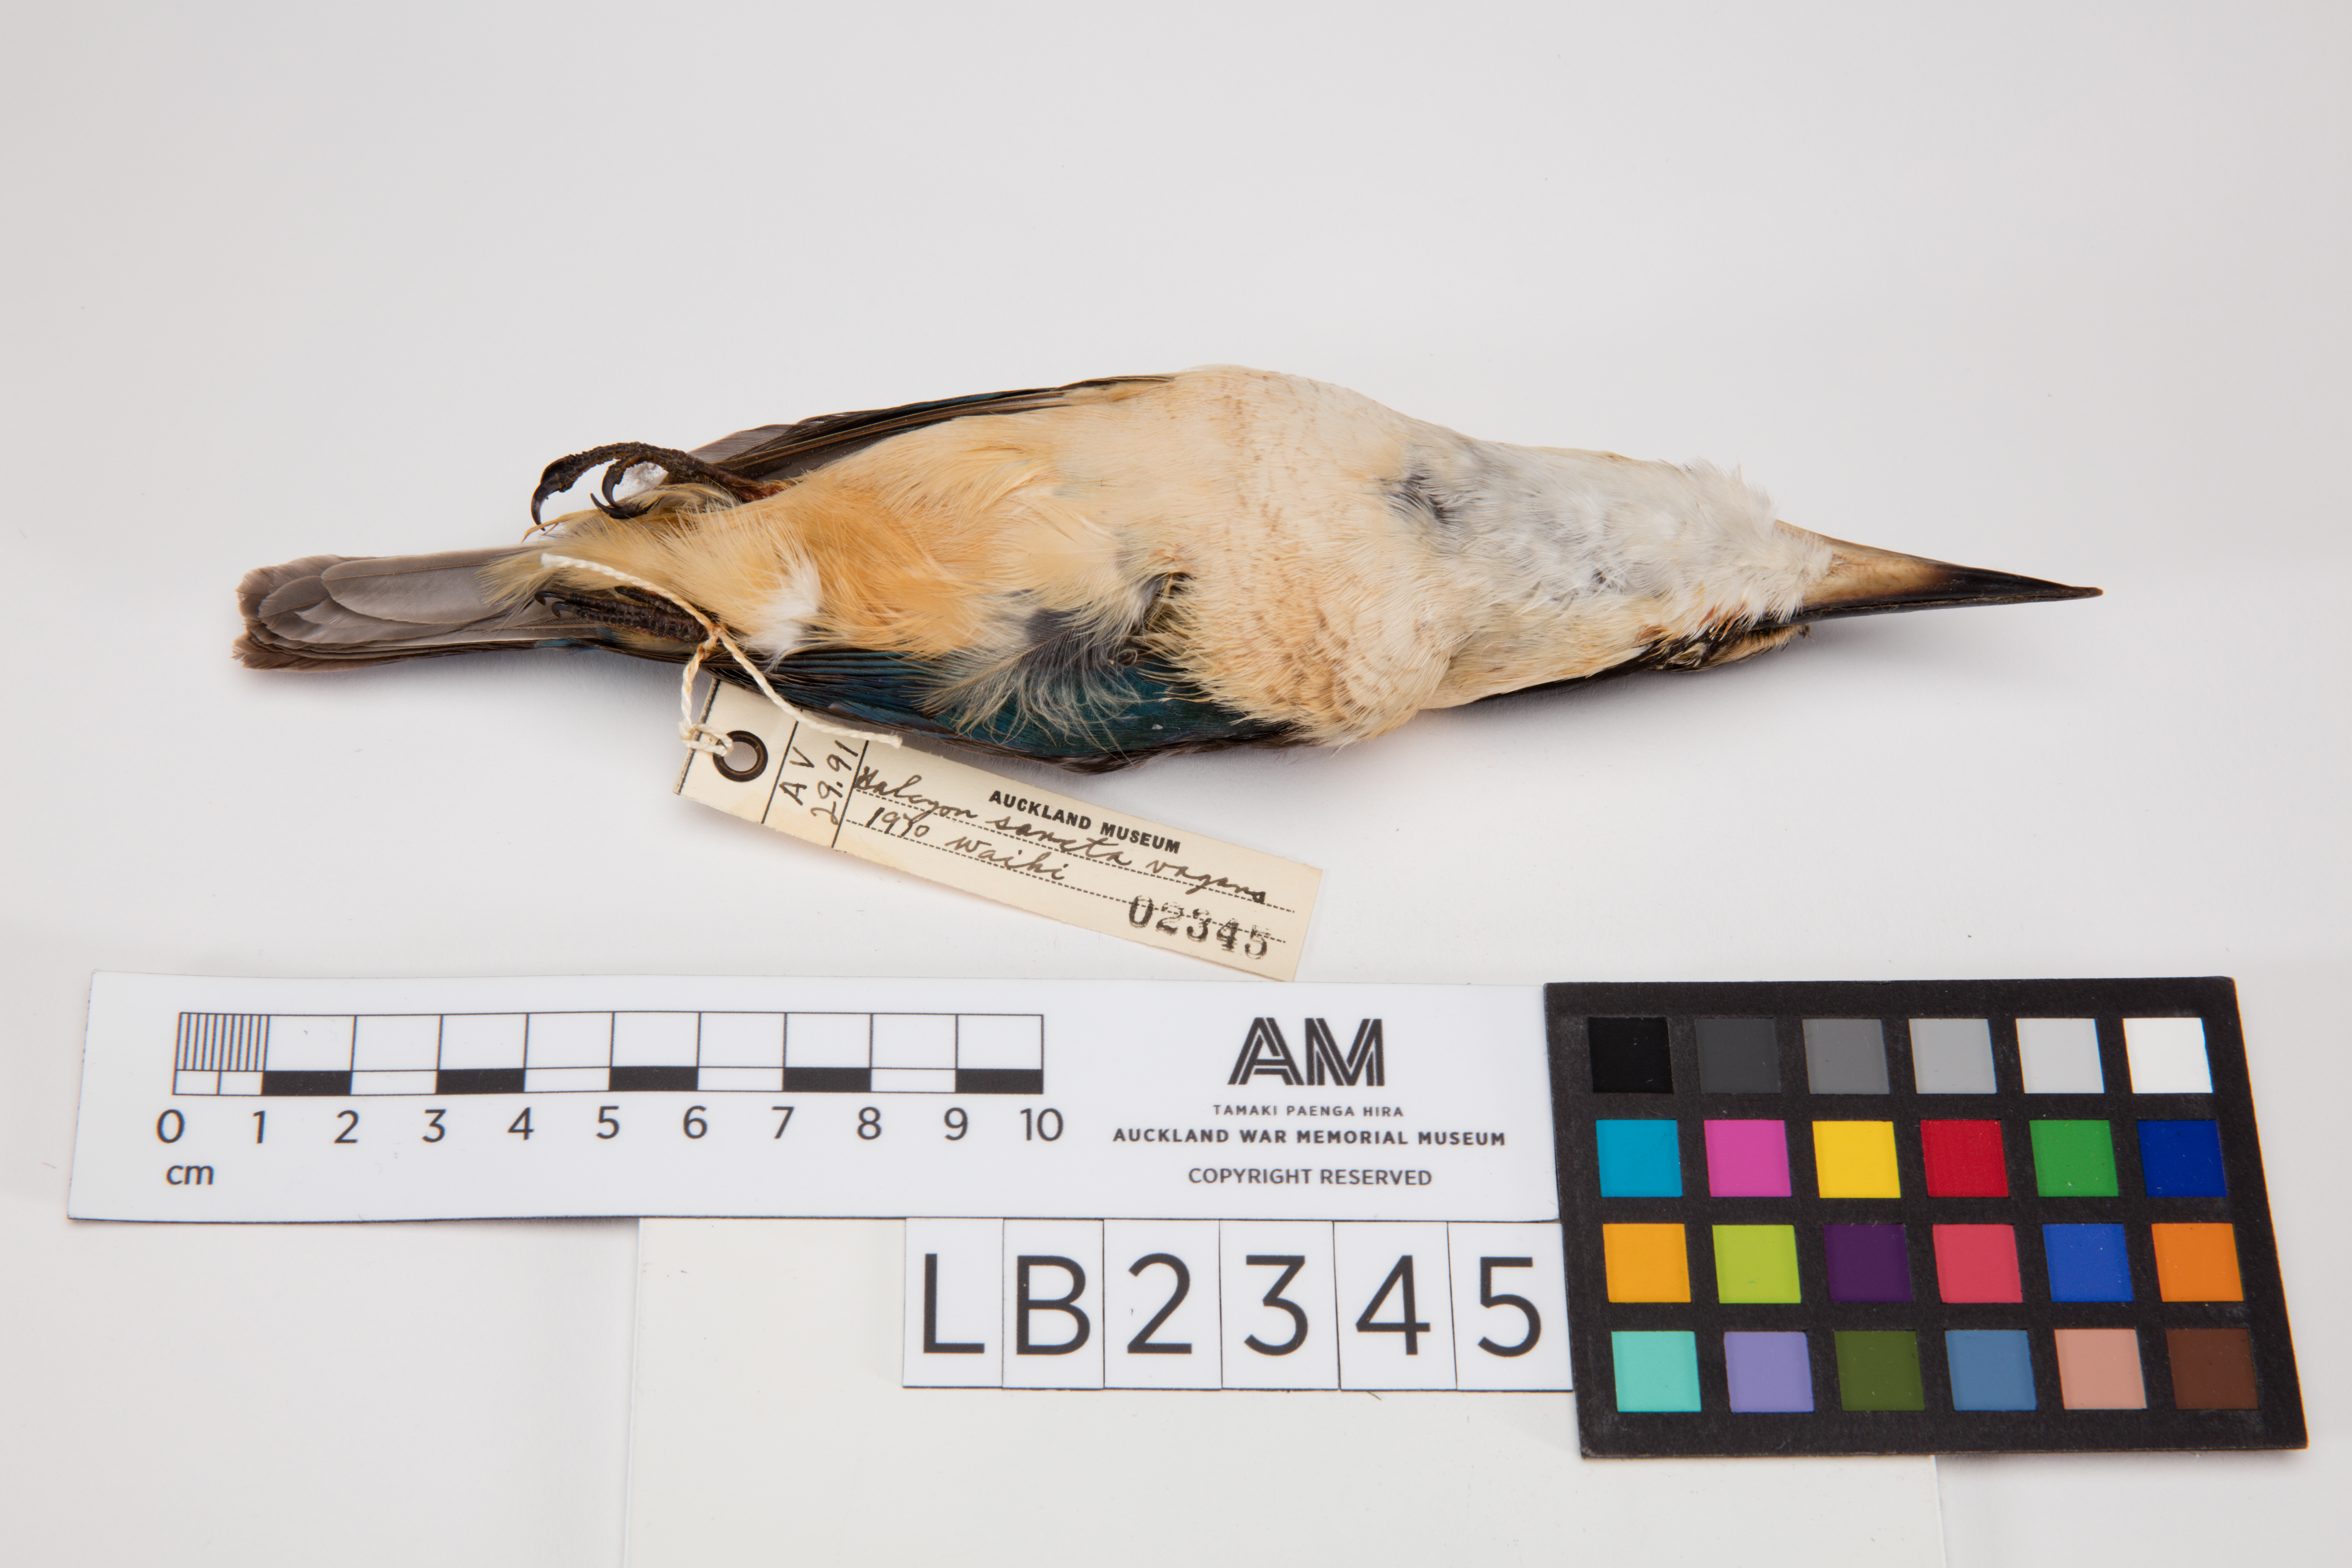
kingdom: Animalia
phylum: Chordata
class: Aves
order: Coraciiformes
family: Alcedinidae
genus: Todiramphus
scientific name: Todiramphus sanctus
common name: Sacred kingfisher
